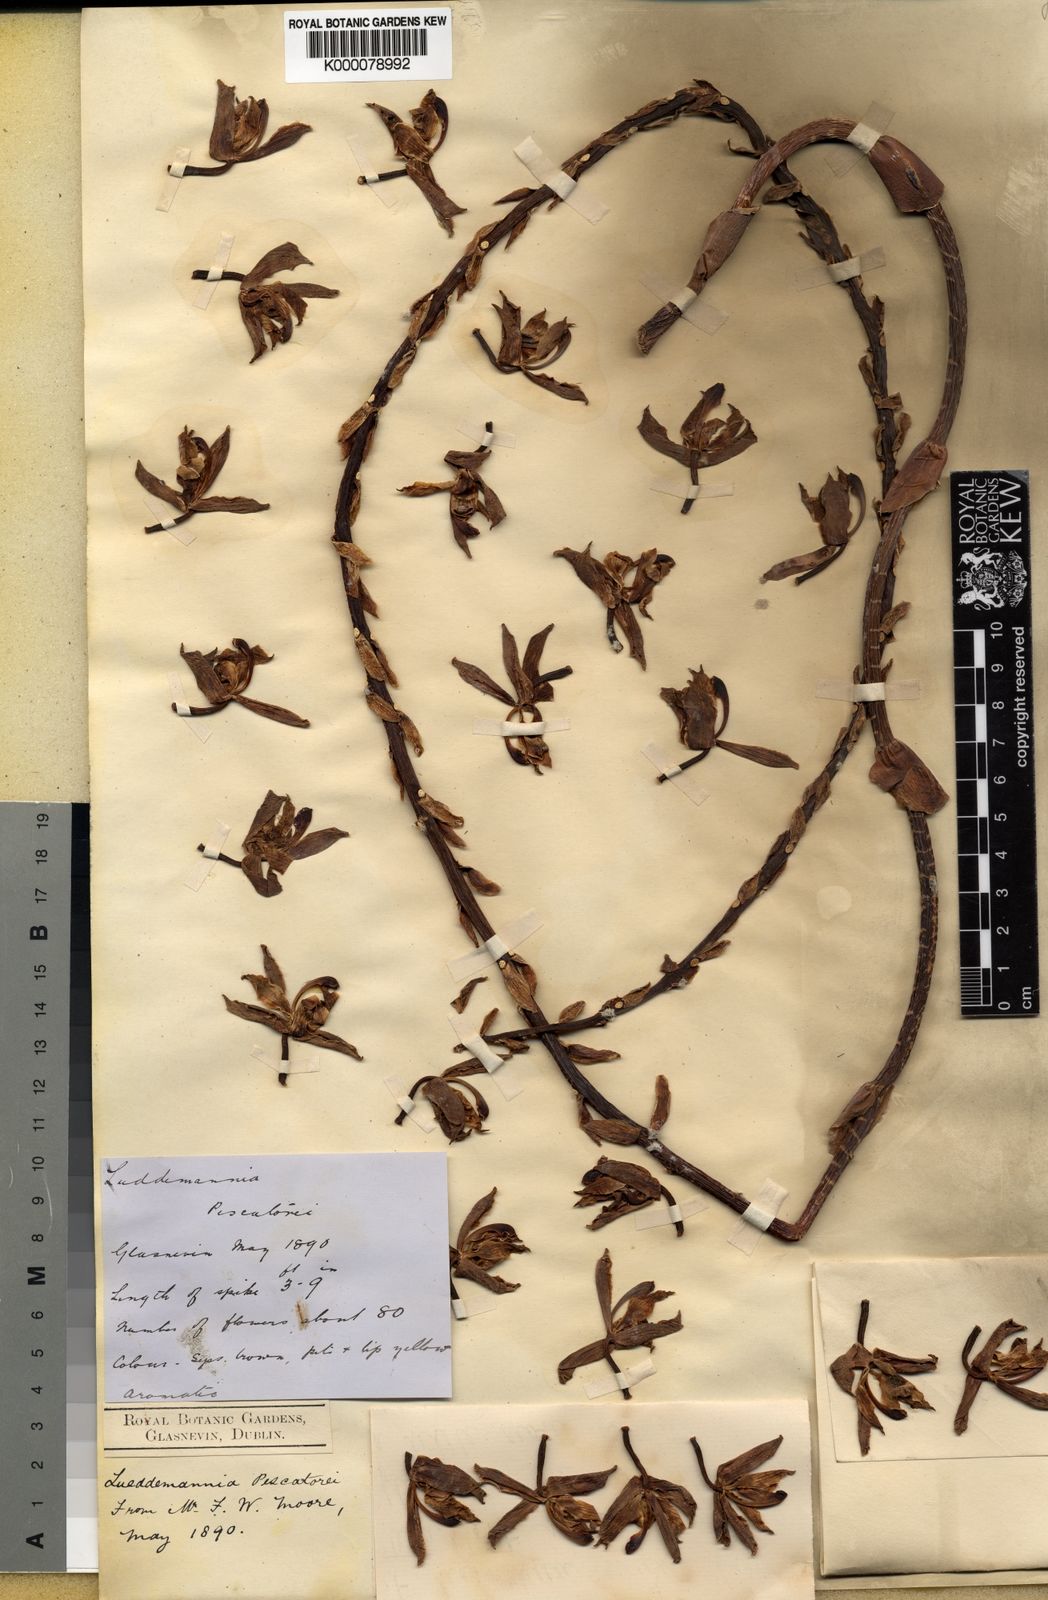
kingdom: Plantae
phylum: Tracheophyta
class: Liliopsida
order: Asparagales
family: Orchidaceae
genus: Lueddemannia
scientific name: Lueddemannia pescatorei
